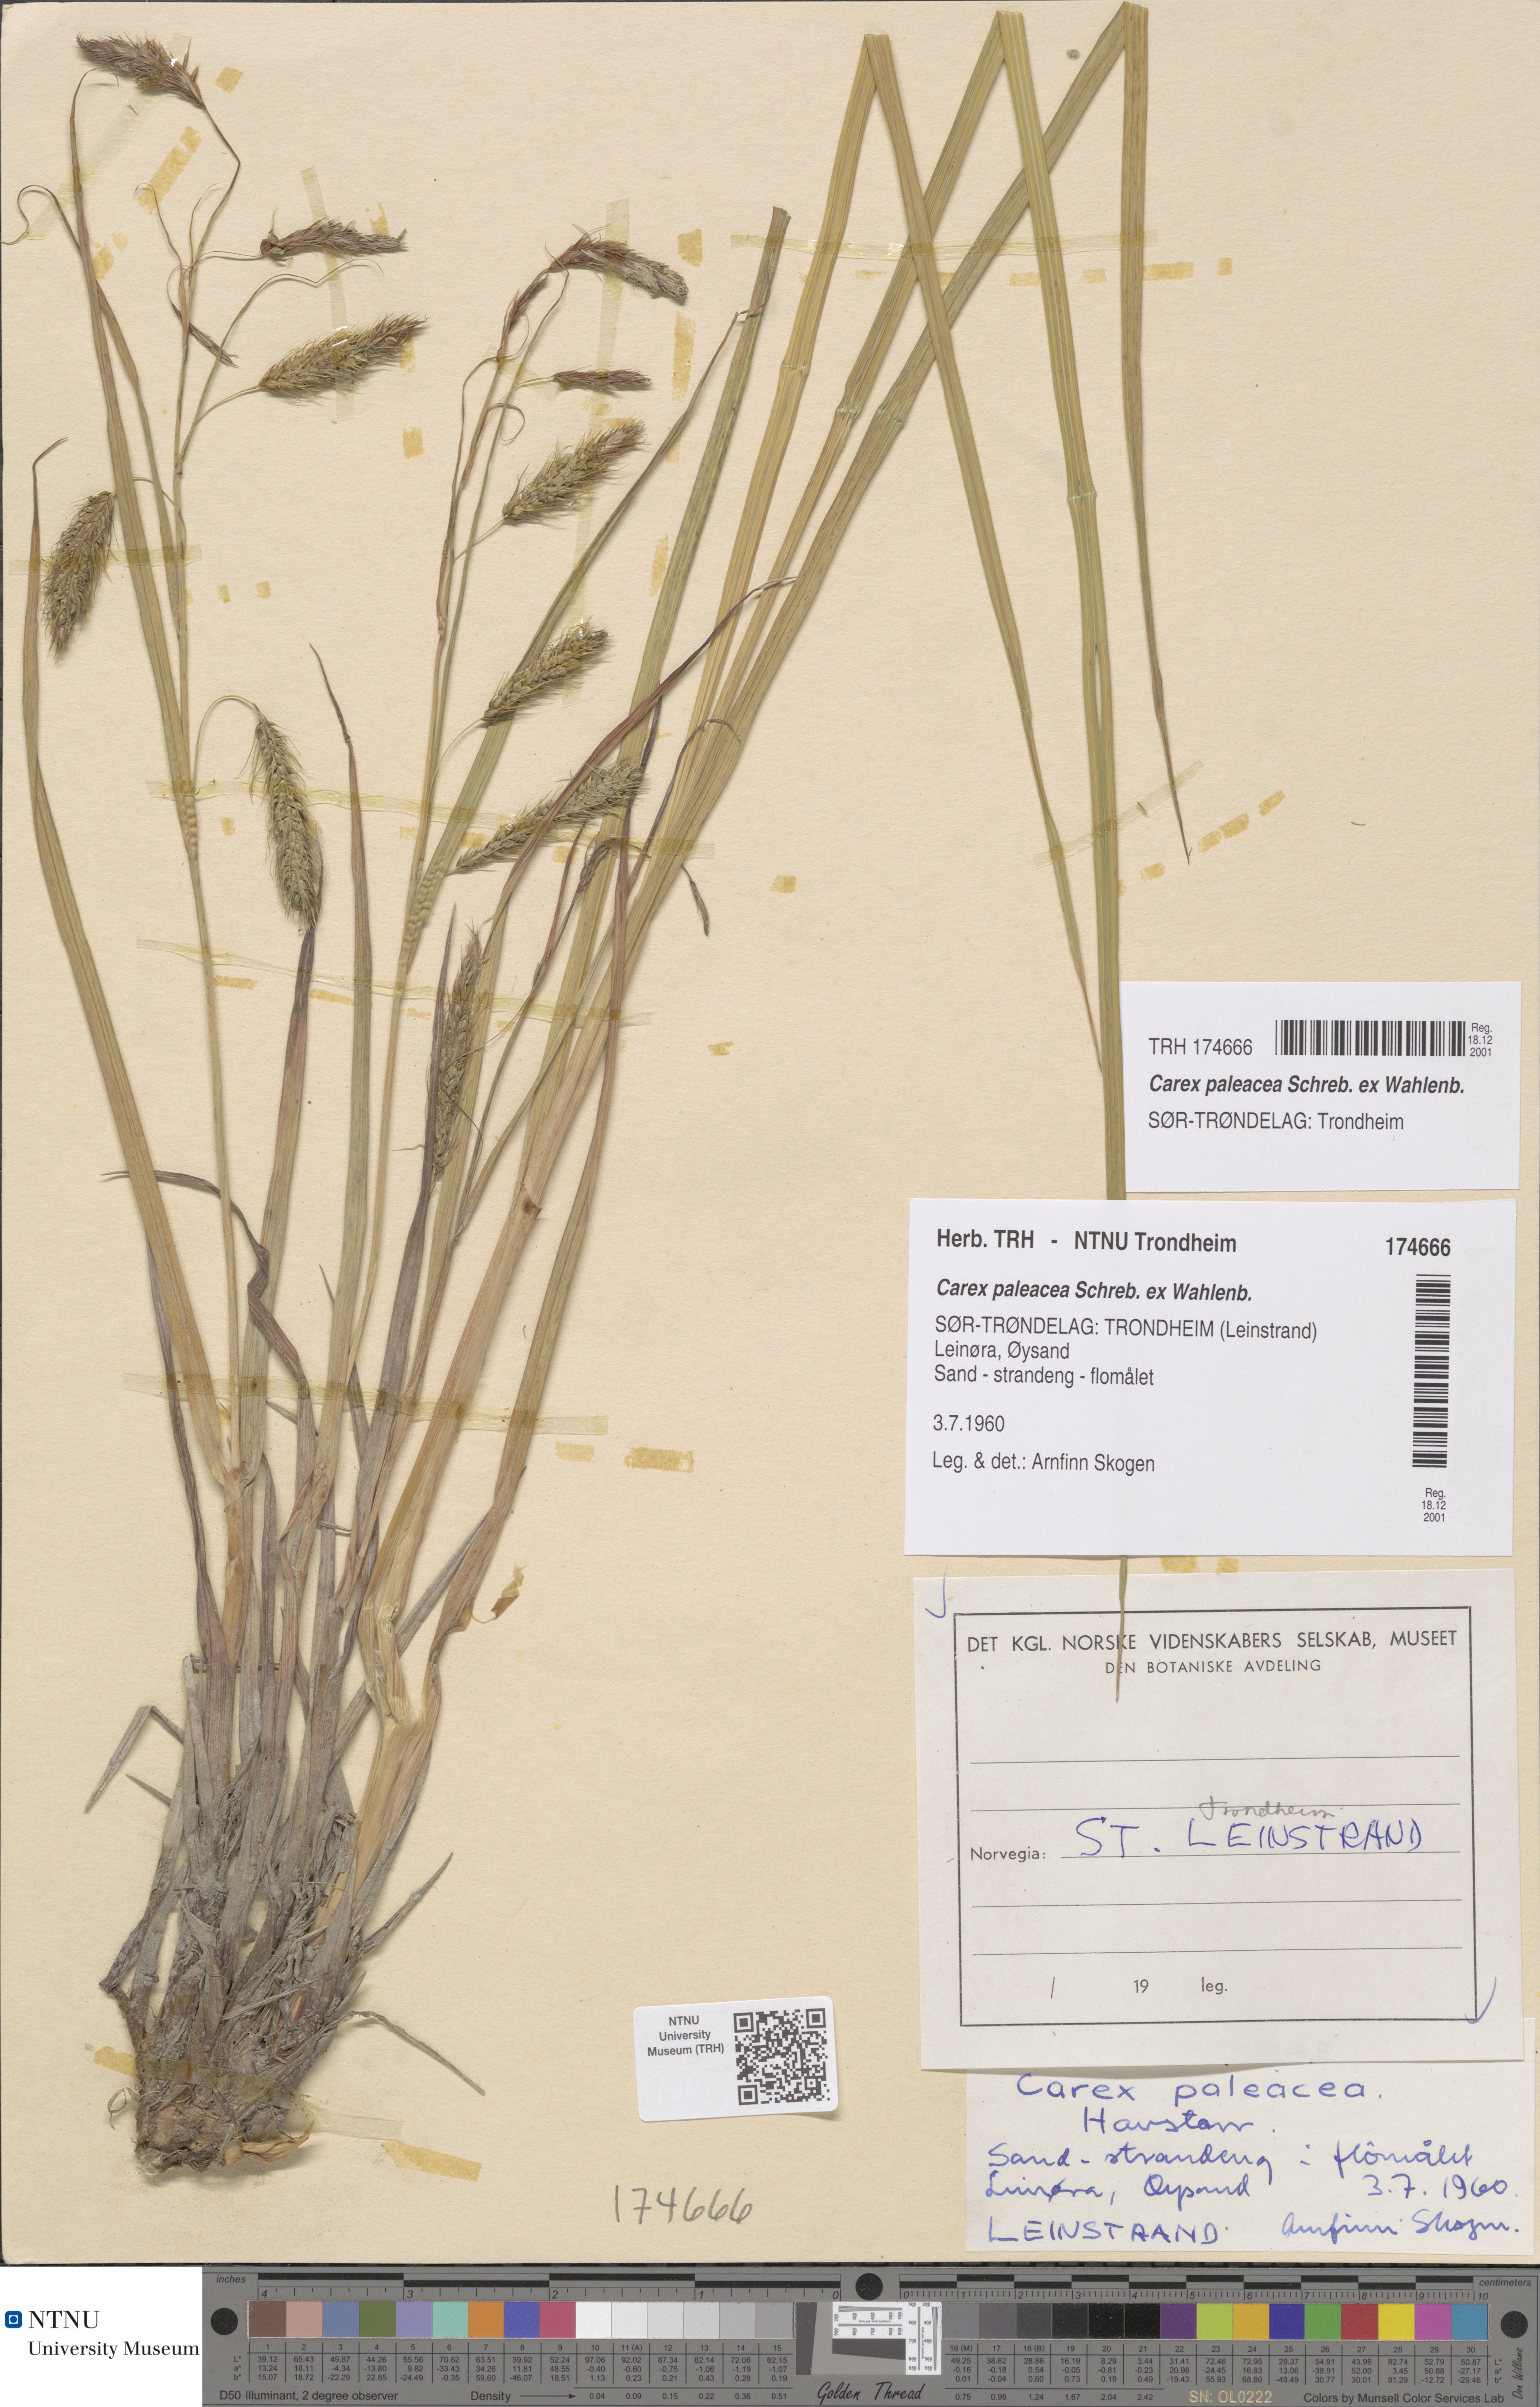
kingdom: Plantae
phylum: Tracheophyta
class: Liliopsida
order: Poales
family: Cyperaceae
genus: Carex
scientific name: Carex paleacea
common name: Chaffy sedge
